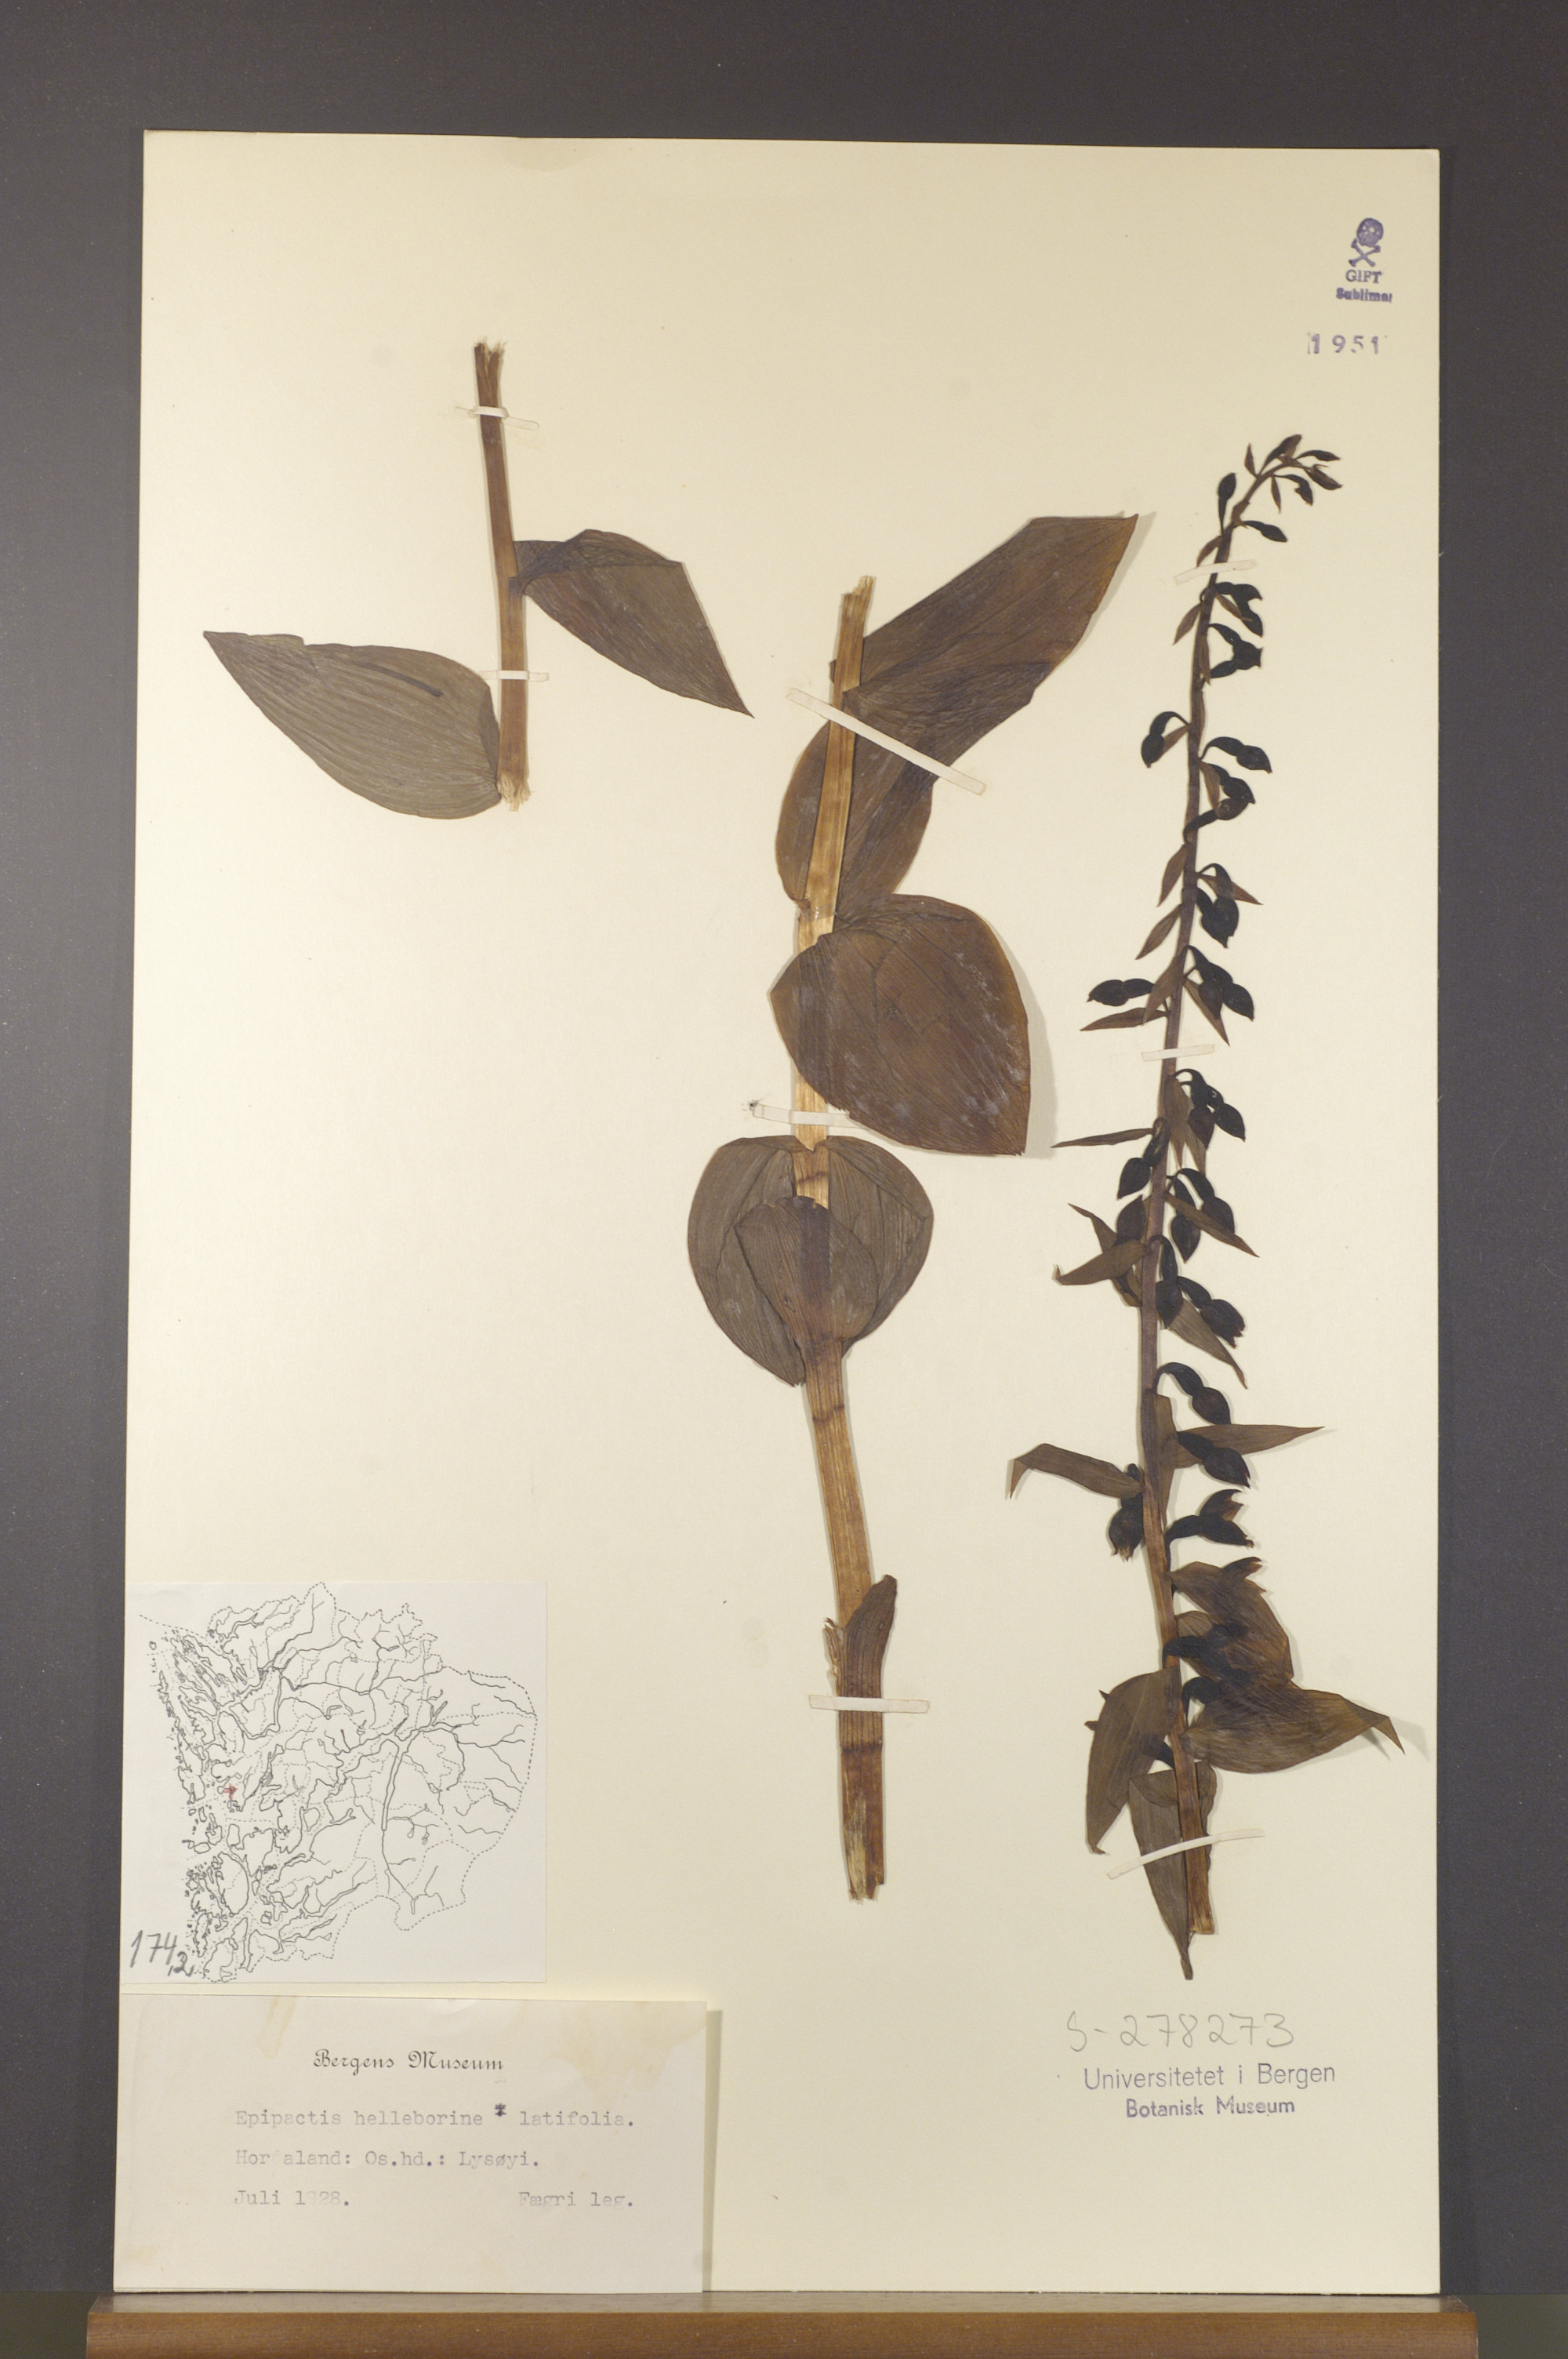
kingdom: Plantae
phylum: Tracheophyta
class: Liliopsida
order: Asparagales
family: Orchidaceae
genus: Epipactis
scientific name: Epipactis helleborine
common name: Broad-leaved helleborine
